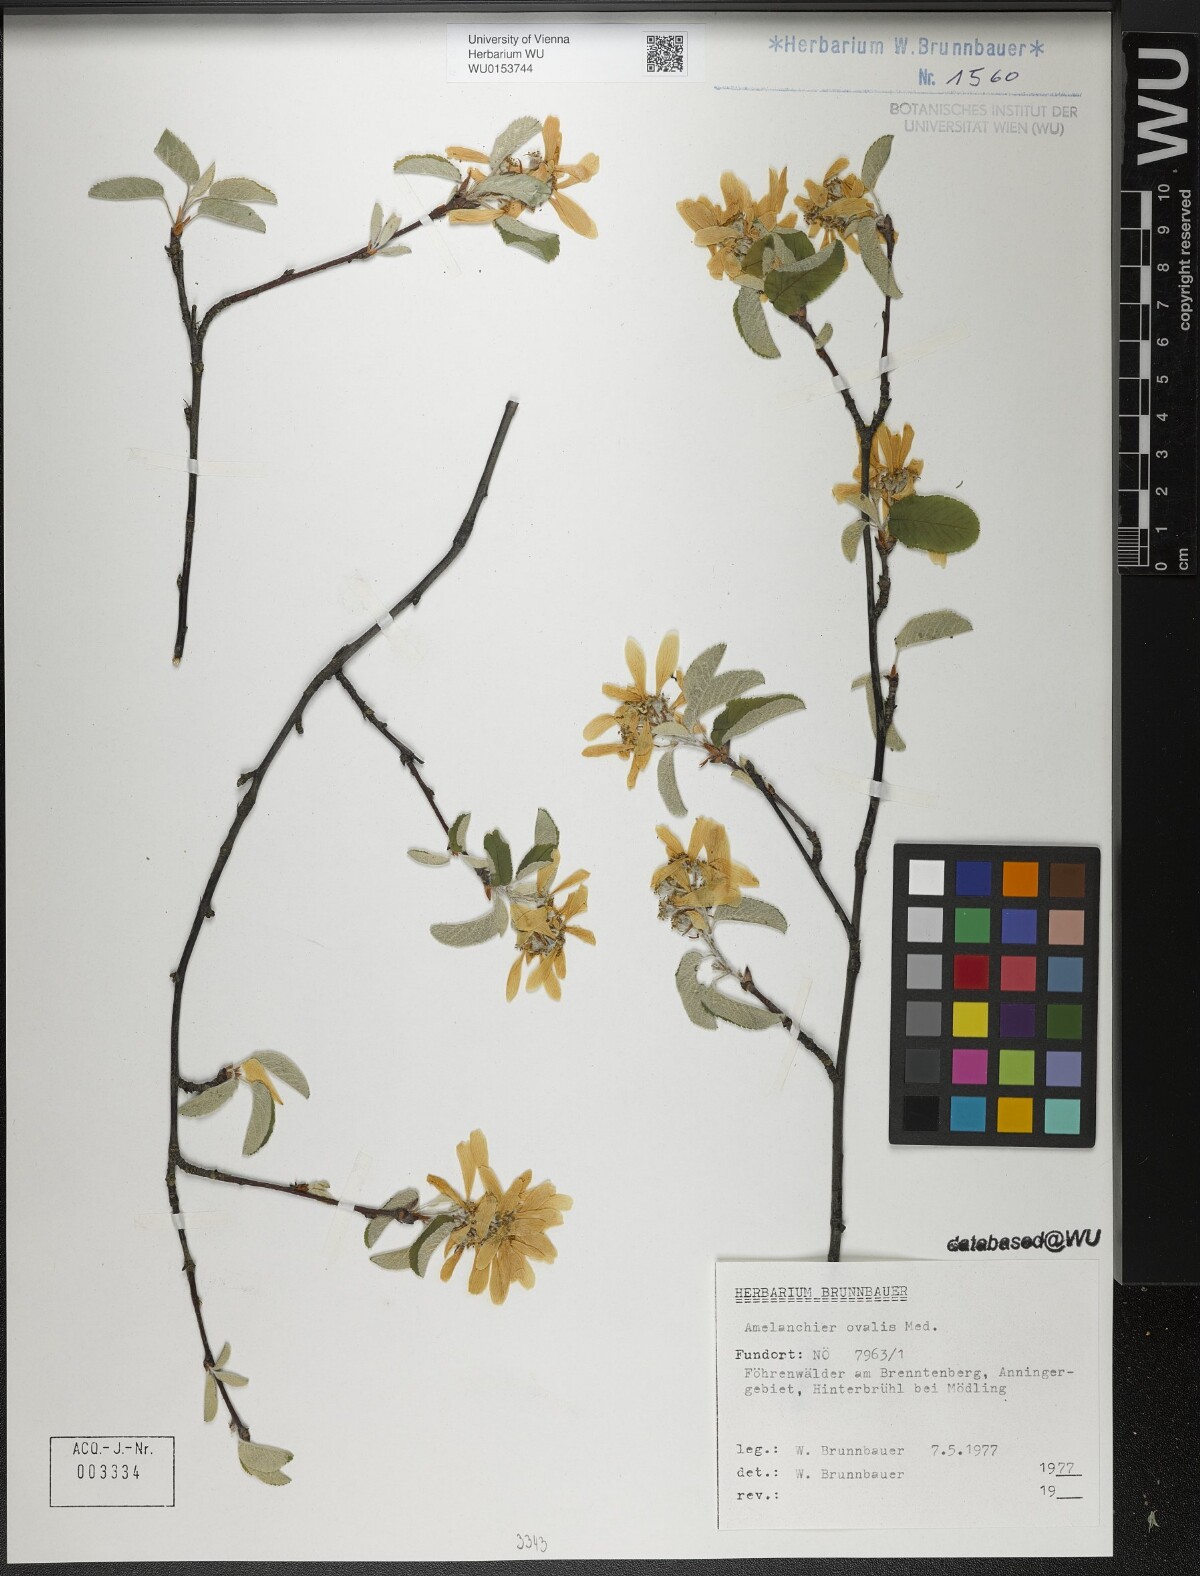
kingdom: Plantae
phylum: Tracheophyta
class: Magnoliopsida
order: Rosales
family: Rosaceae
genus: Amelanchier
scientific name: Amelanchier ovalis
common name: Serviceberry
